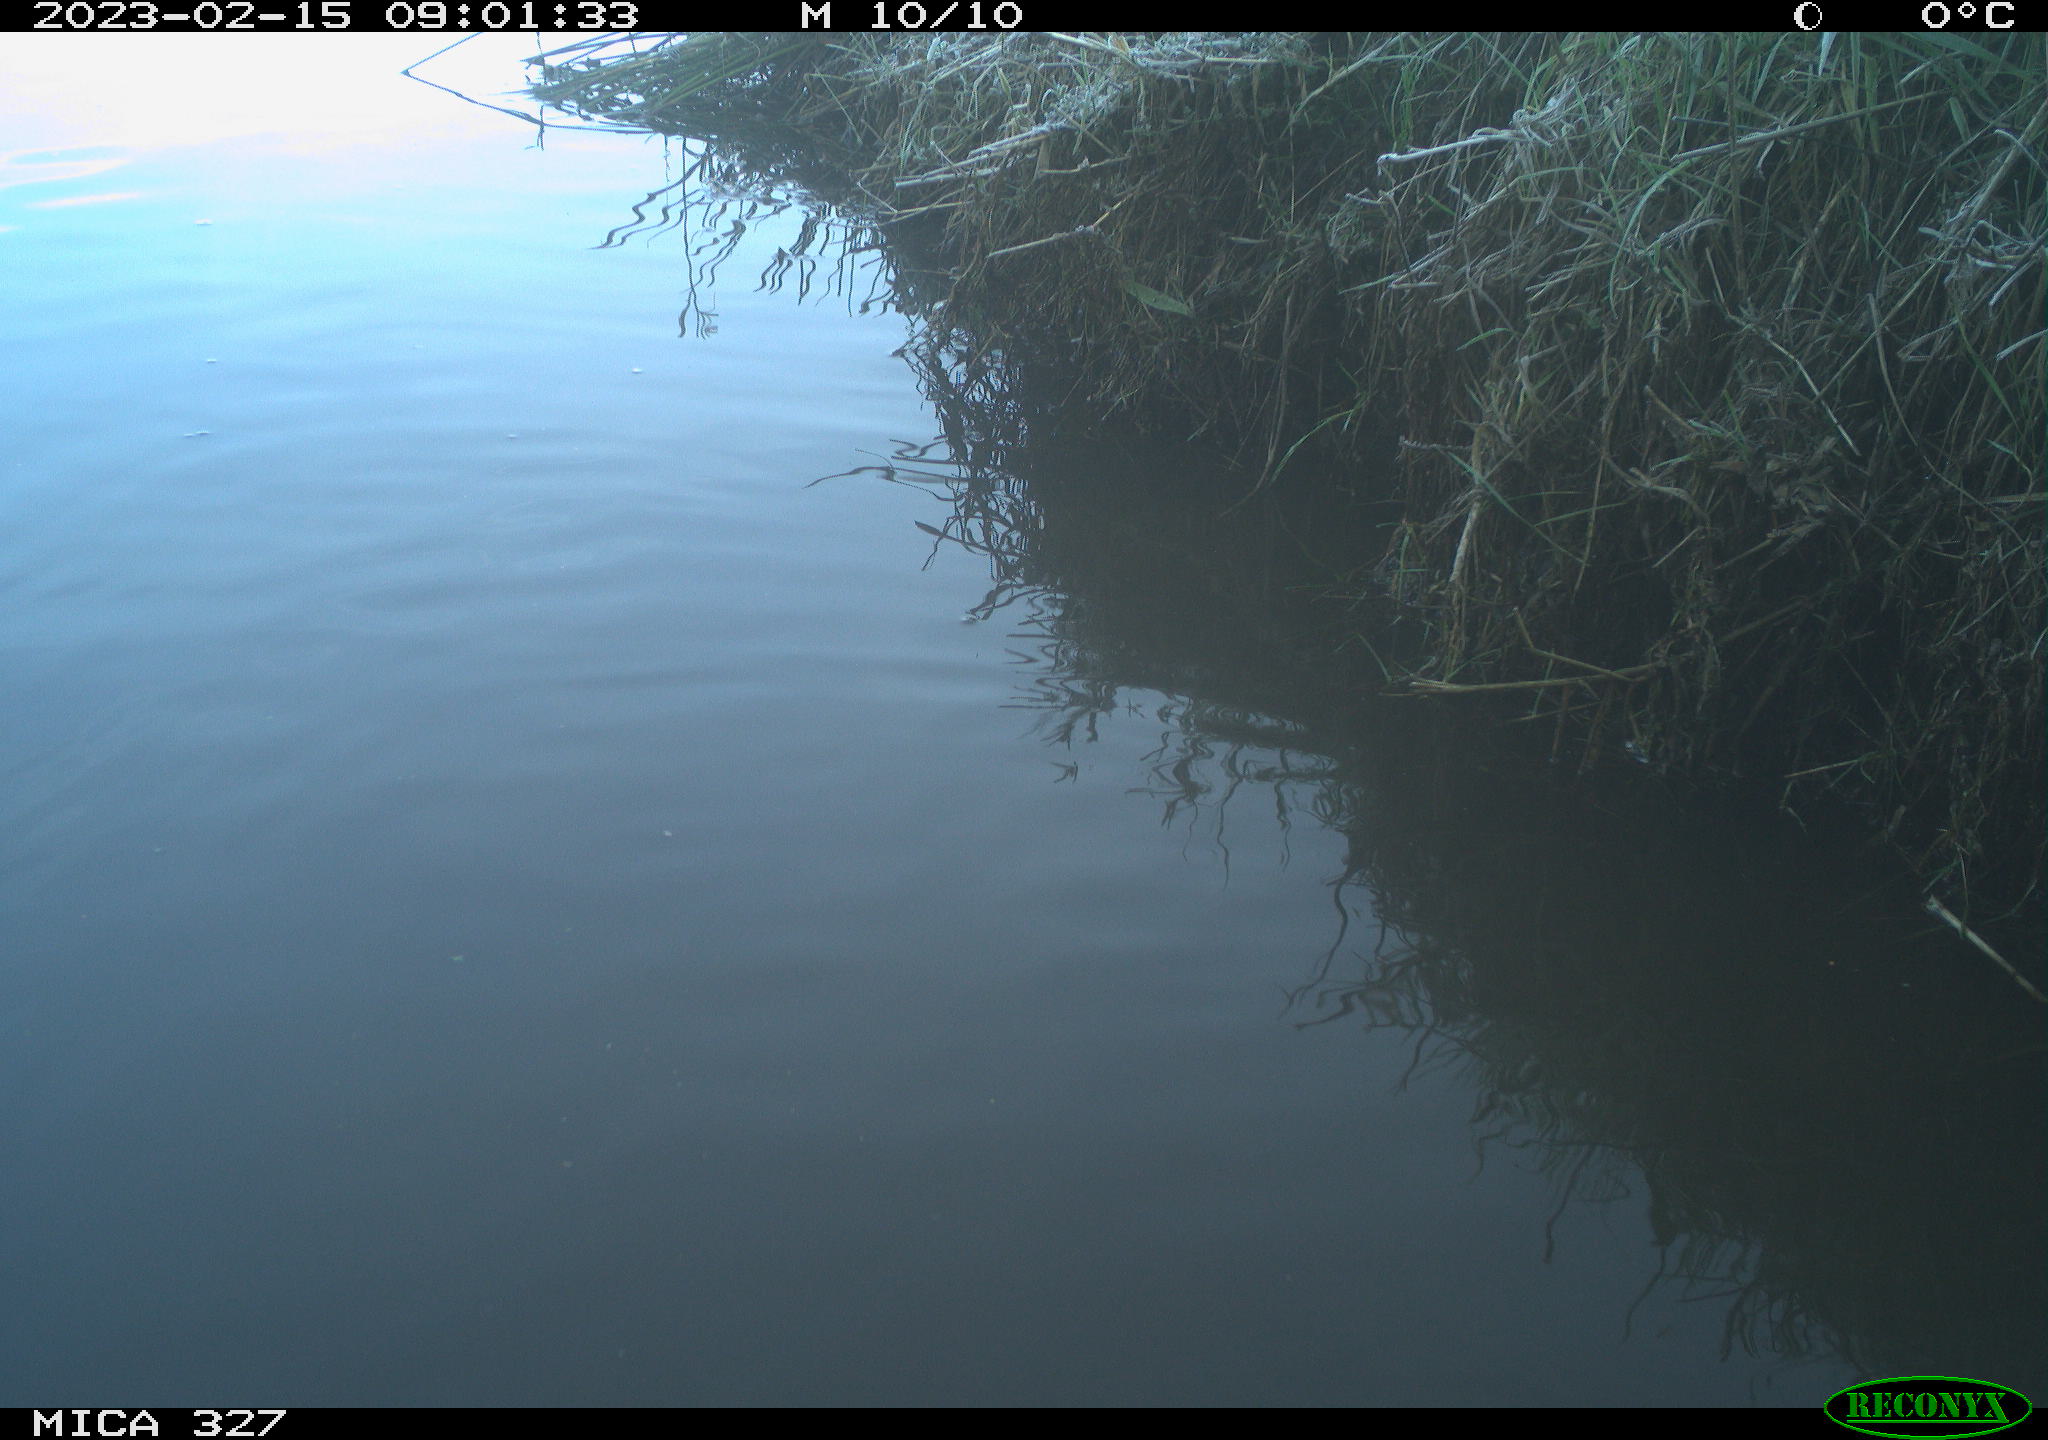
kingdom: Animalia
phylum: Chordata
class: Aves
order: Gruiformes
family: Rallidae
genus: Gallinula
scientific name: Gallinula chloropus
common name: Common moorhen
